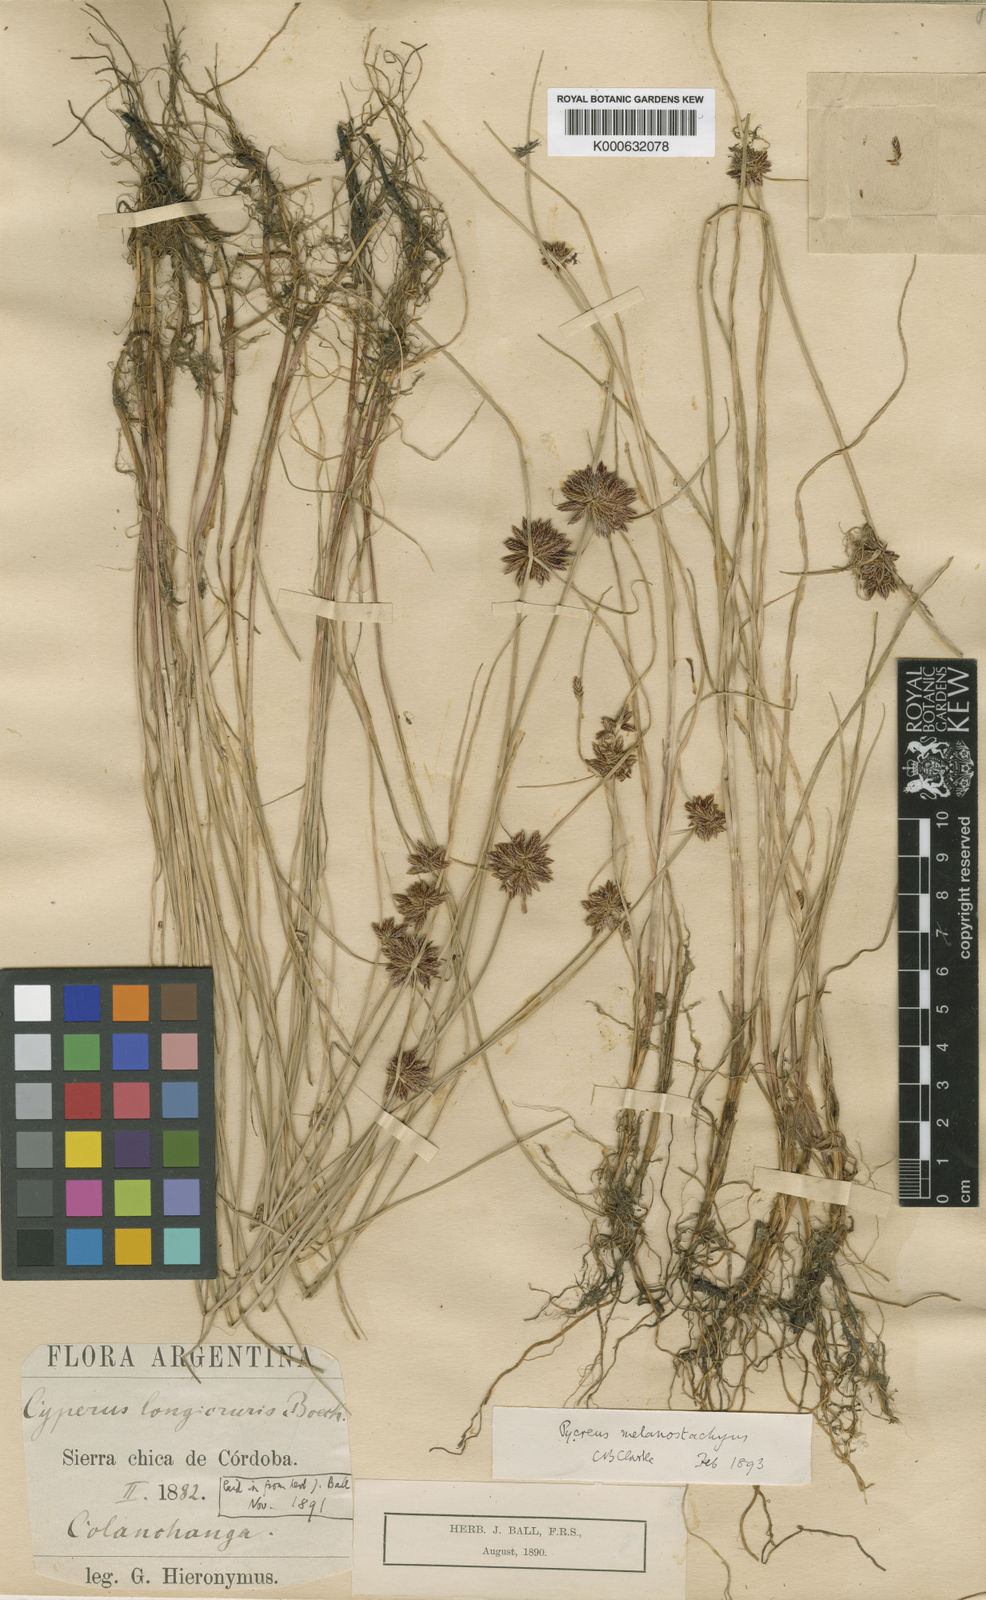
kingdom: Plantae
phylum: Tracheophyta
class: Liliopsida
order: Poales
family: Cyperaceae
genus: Cyperus
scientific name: Cyperus melanostachyus
